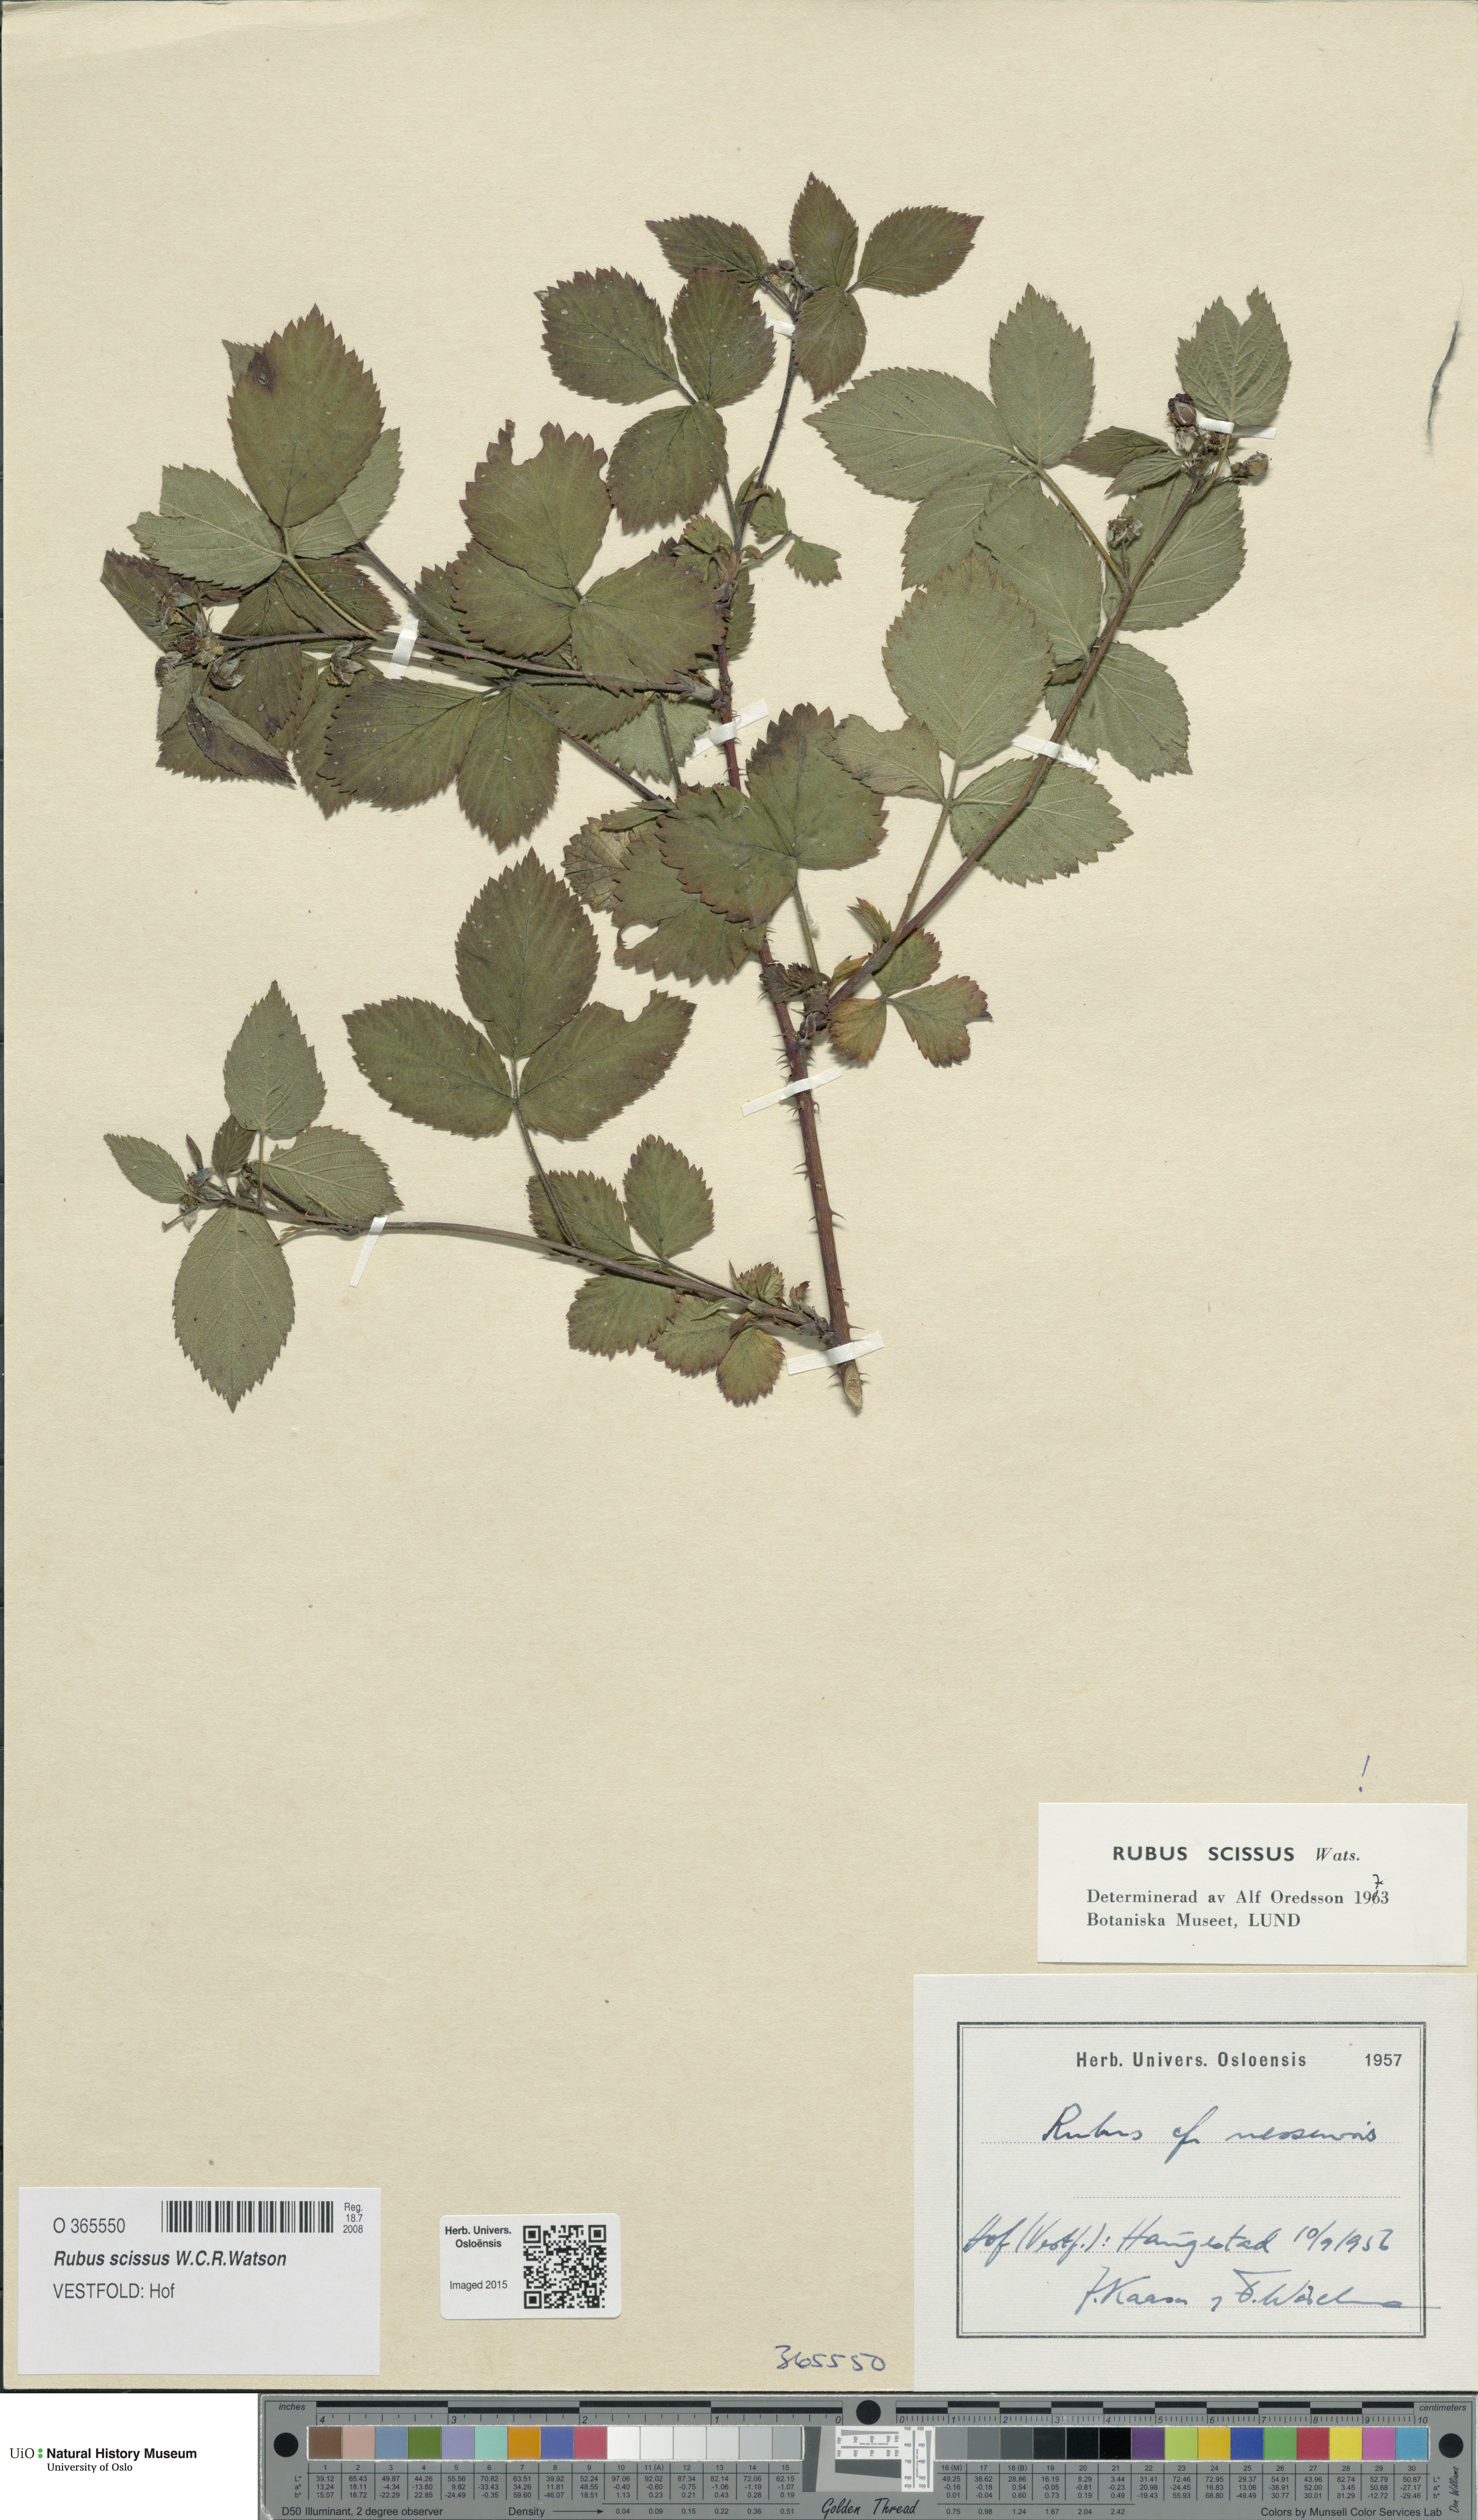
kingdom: Plantae
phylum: Tracheophyta
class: Magnoliopsida
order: Rosales
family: Rosaceae
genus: Rubus
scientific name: Rubus scissus
